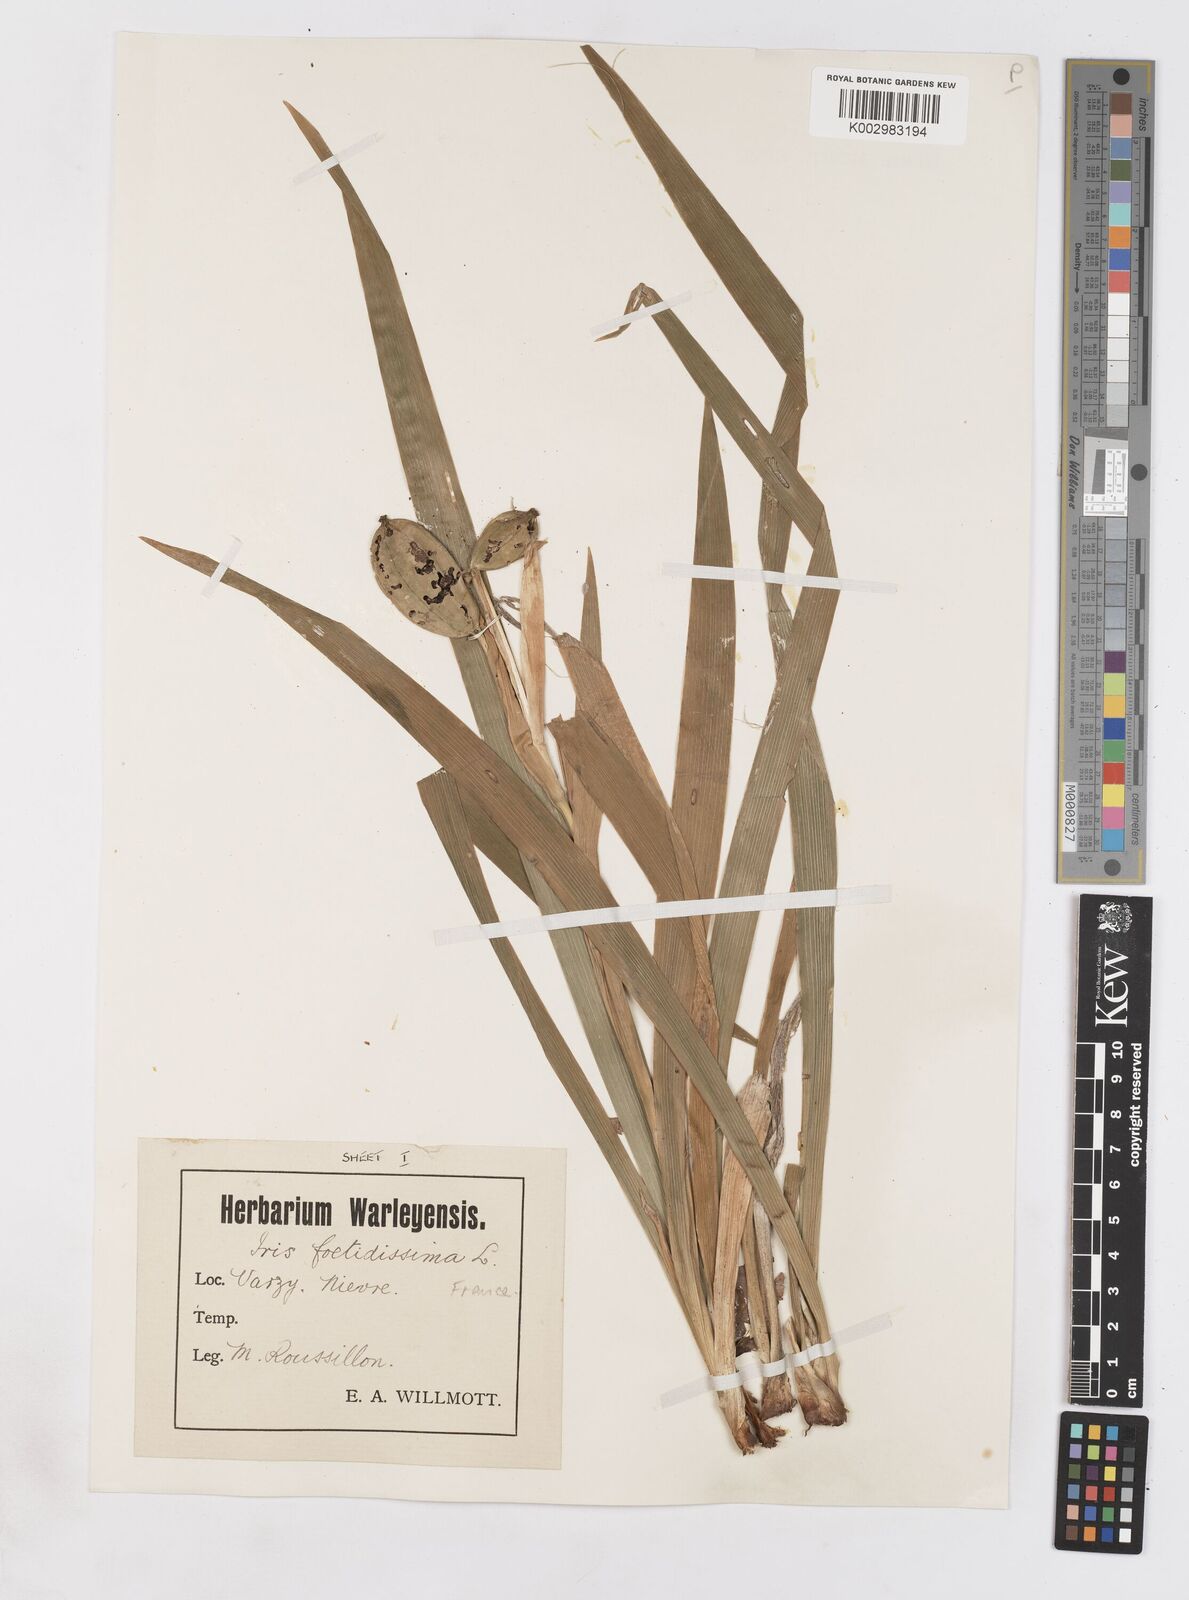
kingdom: Plantae
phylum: Tracheophyta
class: Liliopsida
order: Asparagales
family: Iridaceae
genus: Iris
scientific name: Iris foetidissima
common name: Stinking iris
